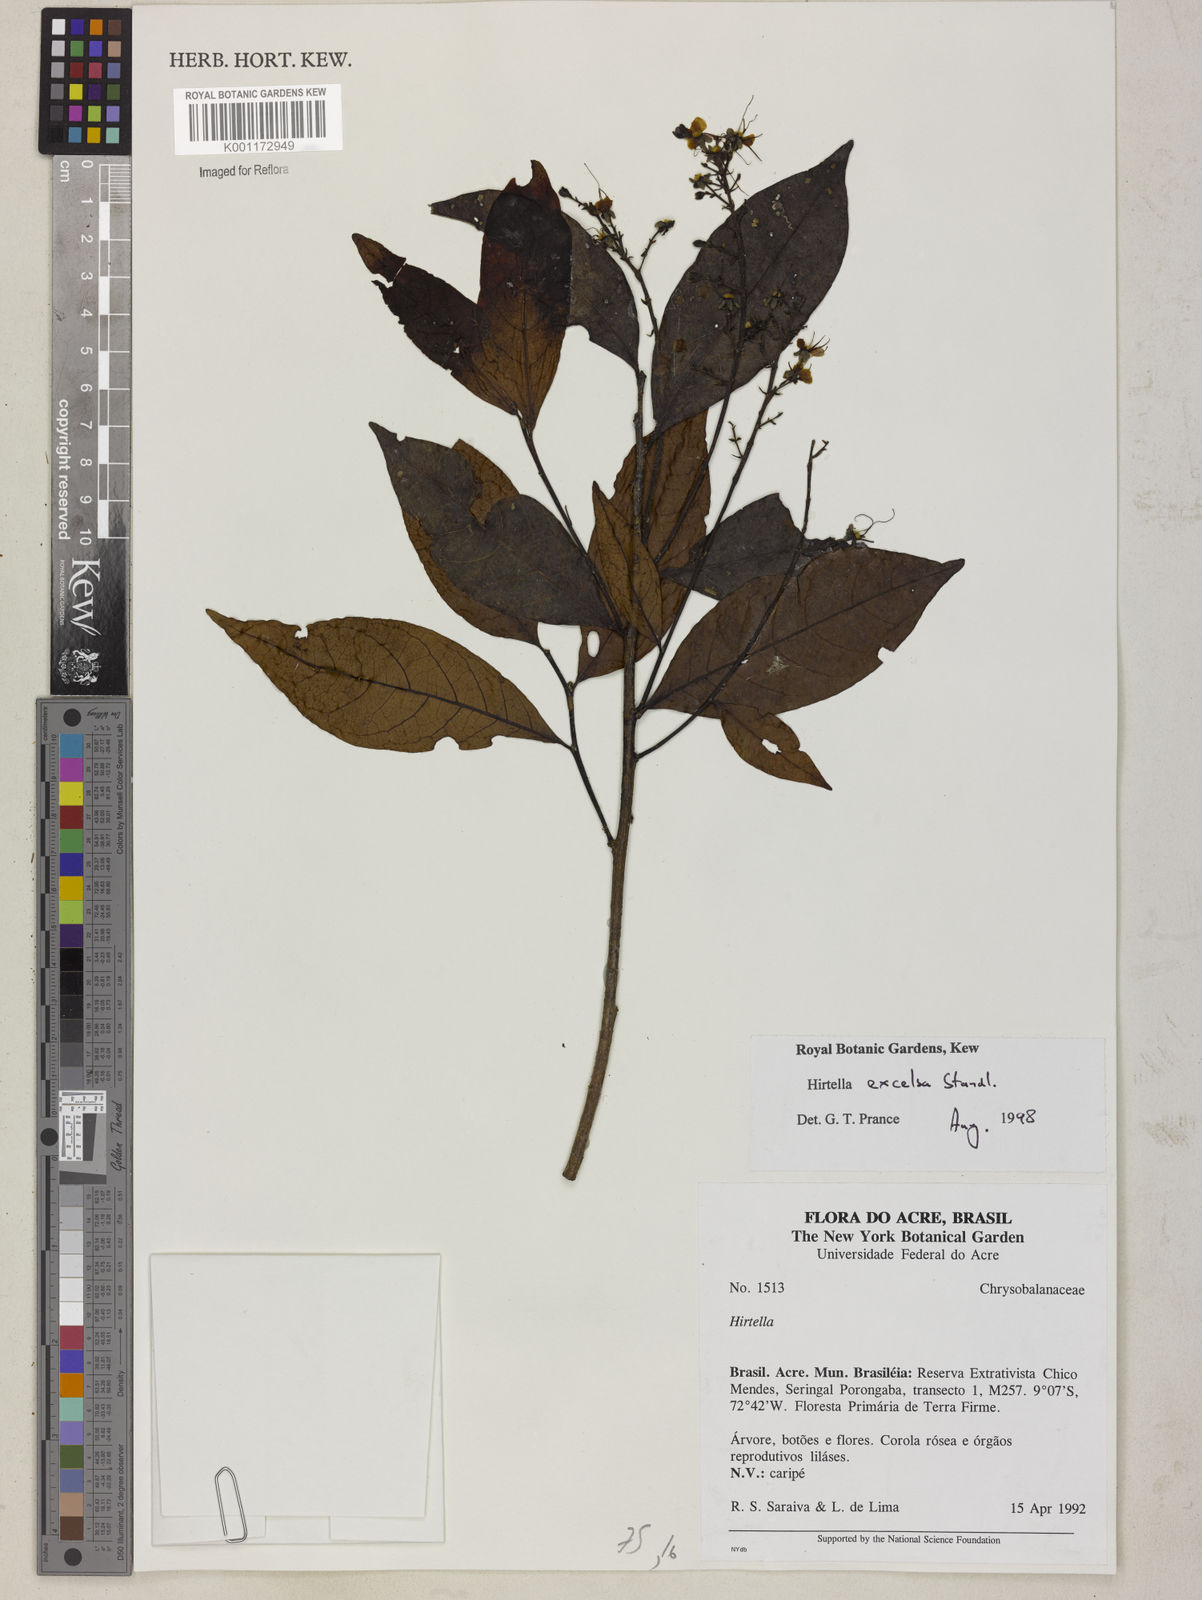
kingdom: Plantae
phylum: Tracheophyta
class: Magnoliopsida
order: Malpighiales
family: Chrysobalanaceae
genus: Hirtella
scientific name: Hirtella excelsa
